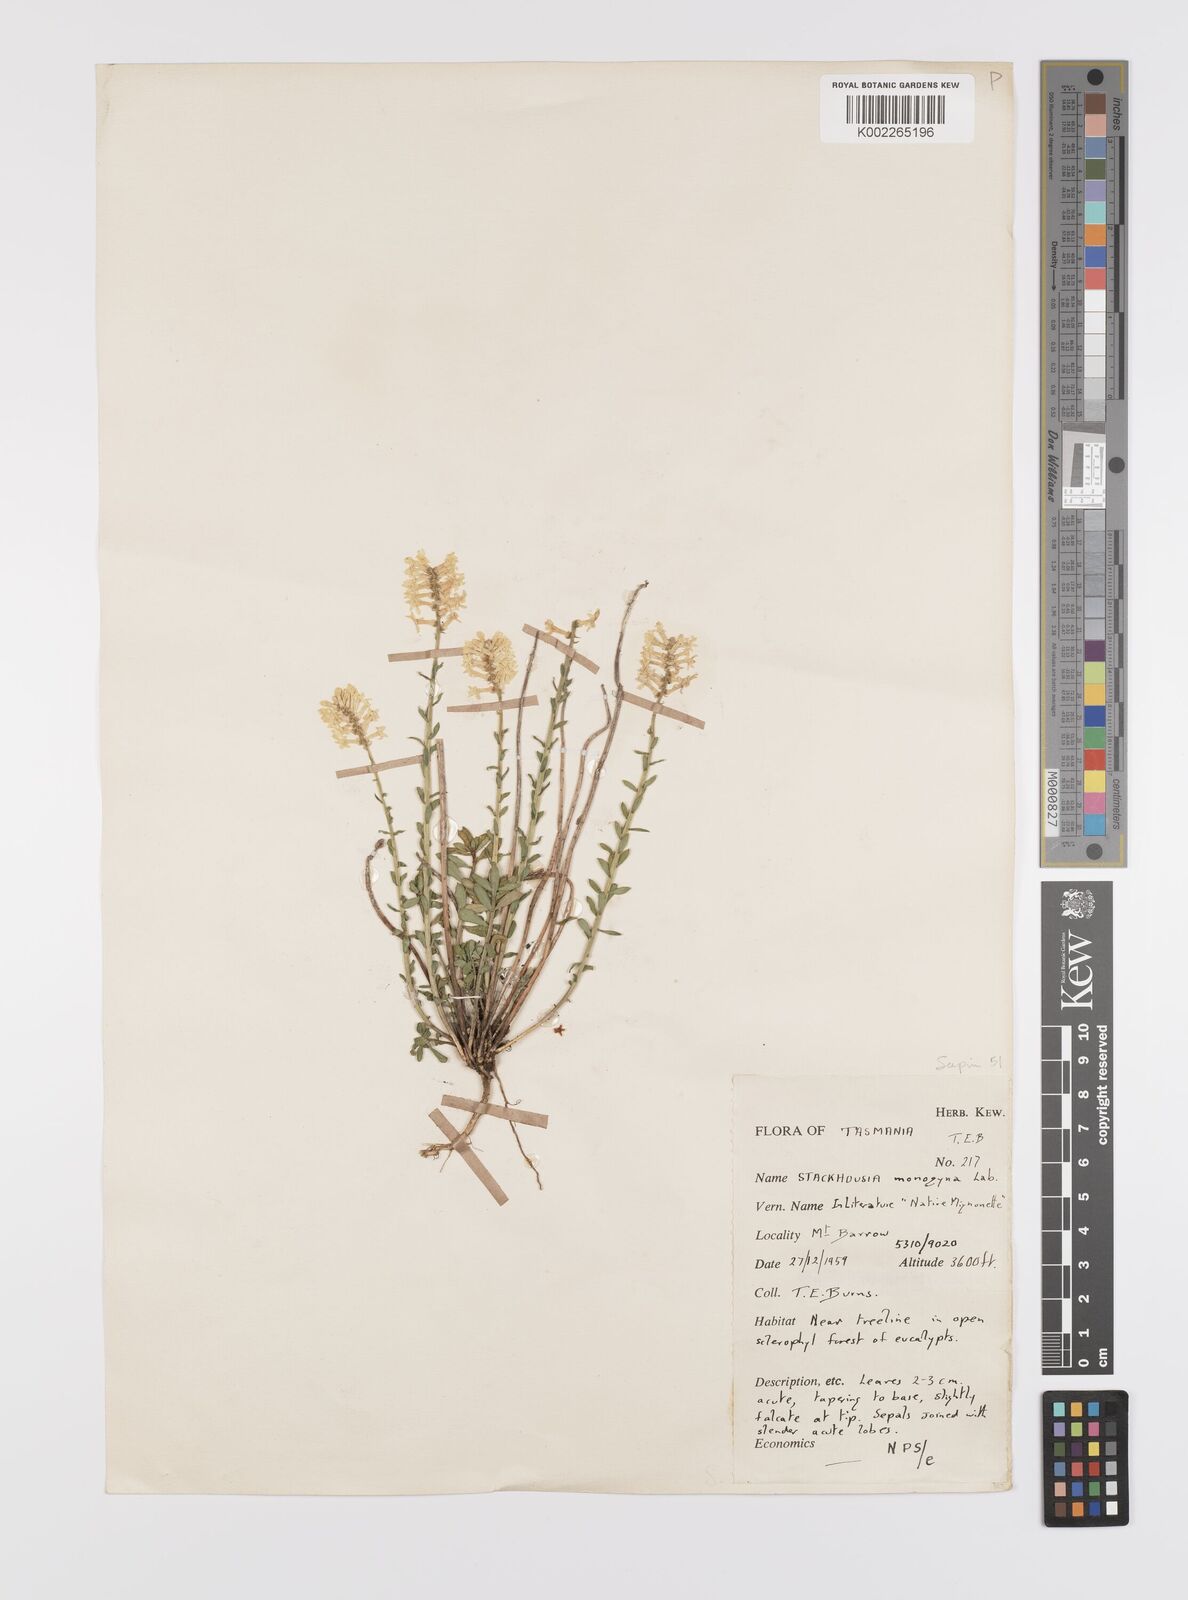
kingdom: Plantae
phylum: Tracheophyta
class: Magnoliopsida
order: Celastrales
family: Celastraceae
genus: Stackhousia
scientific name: Stackhousia monogyna
